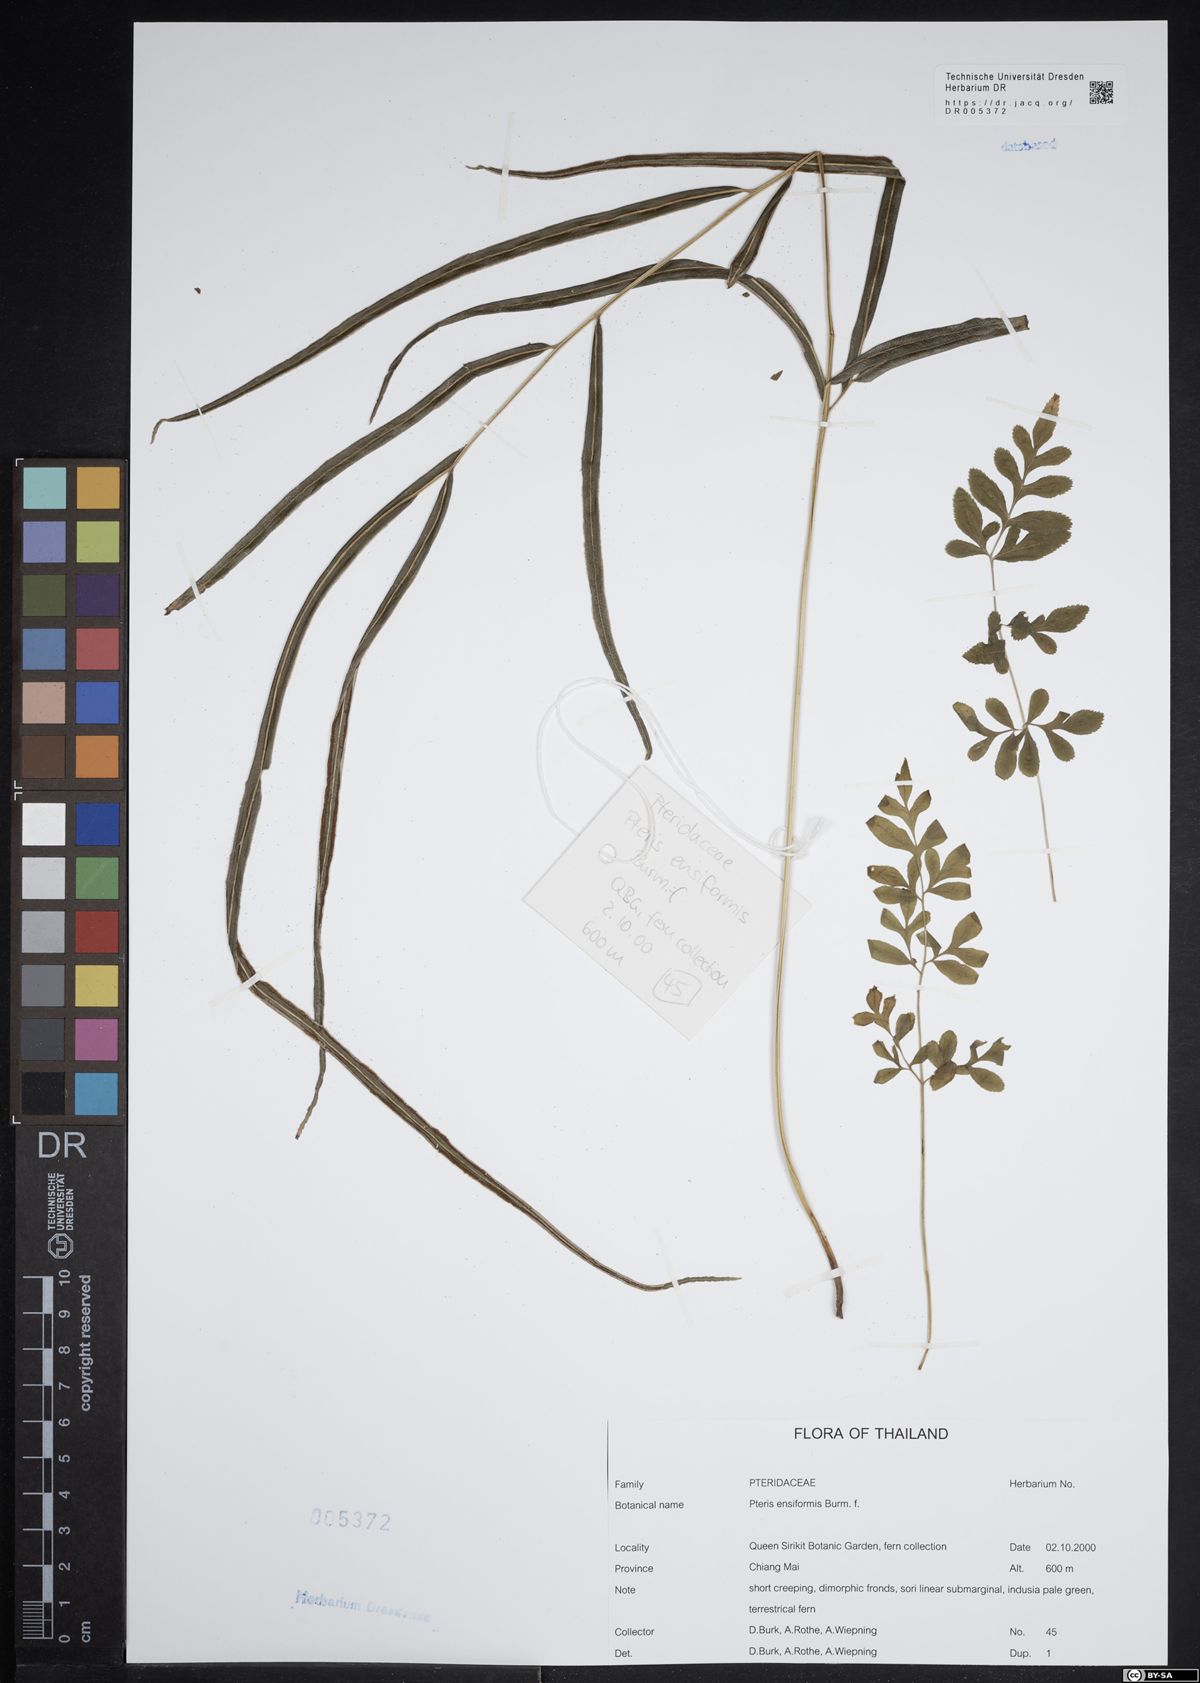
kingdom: Plantae
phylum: Tracheophyta
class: Polypodiopsida
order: Polypodiales
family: Pteridaceae
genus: Pteris
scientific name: Pteris ensiformis
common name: Sword brake
